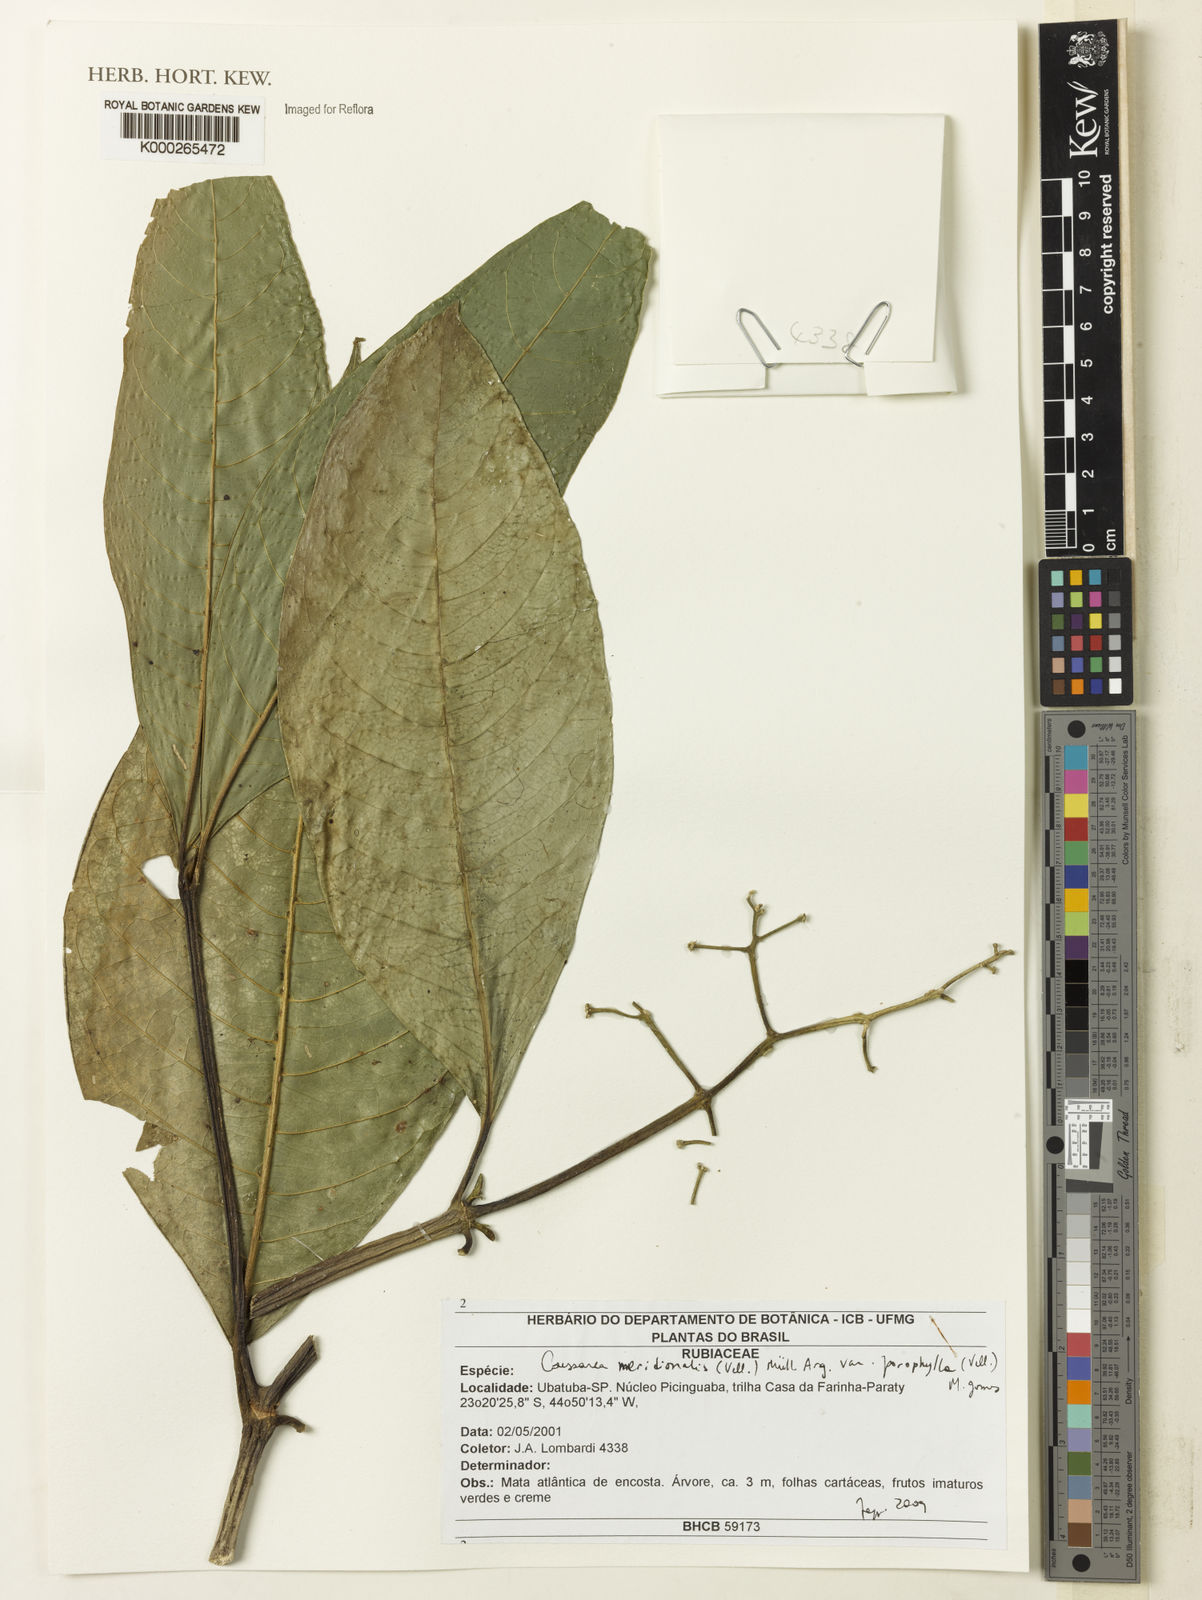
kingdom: Plantae
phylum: Tracheophyta
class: Magnoliopsida
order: Gentianales
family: Rubiaceae
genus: Coussarea
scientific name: Coussarea meridionalis
